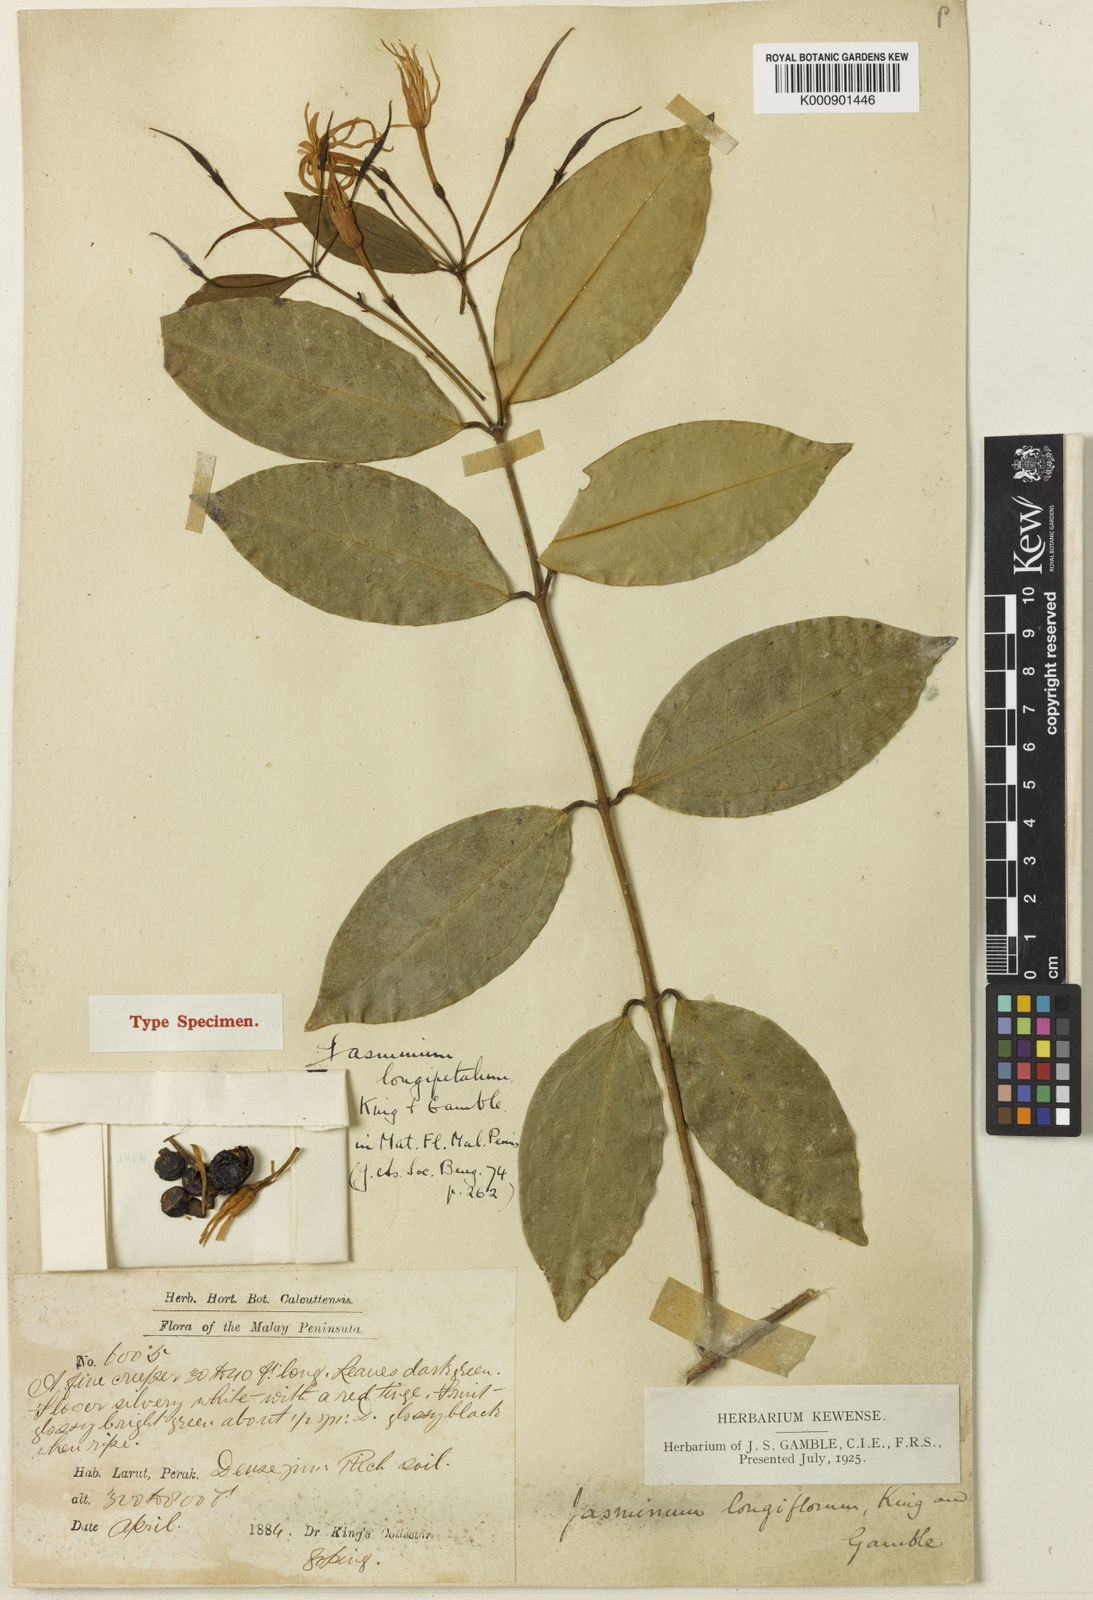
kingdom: Plantae
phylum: Tracheophyta
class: Magnoliopsida
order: Lamiales
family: Oleaceae
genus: Jasminum
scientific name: Jasminum longipetalum
